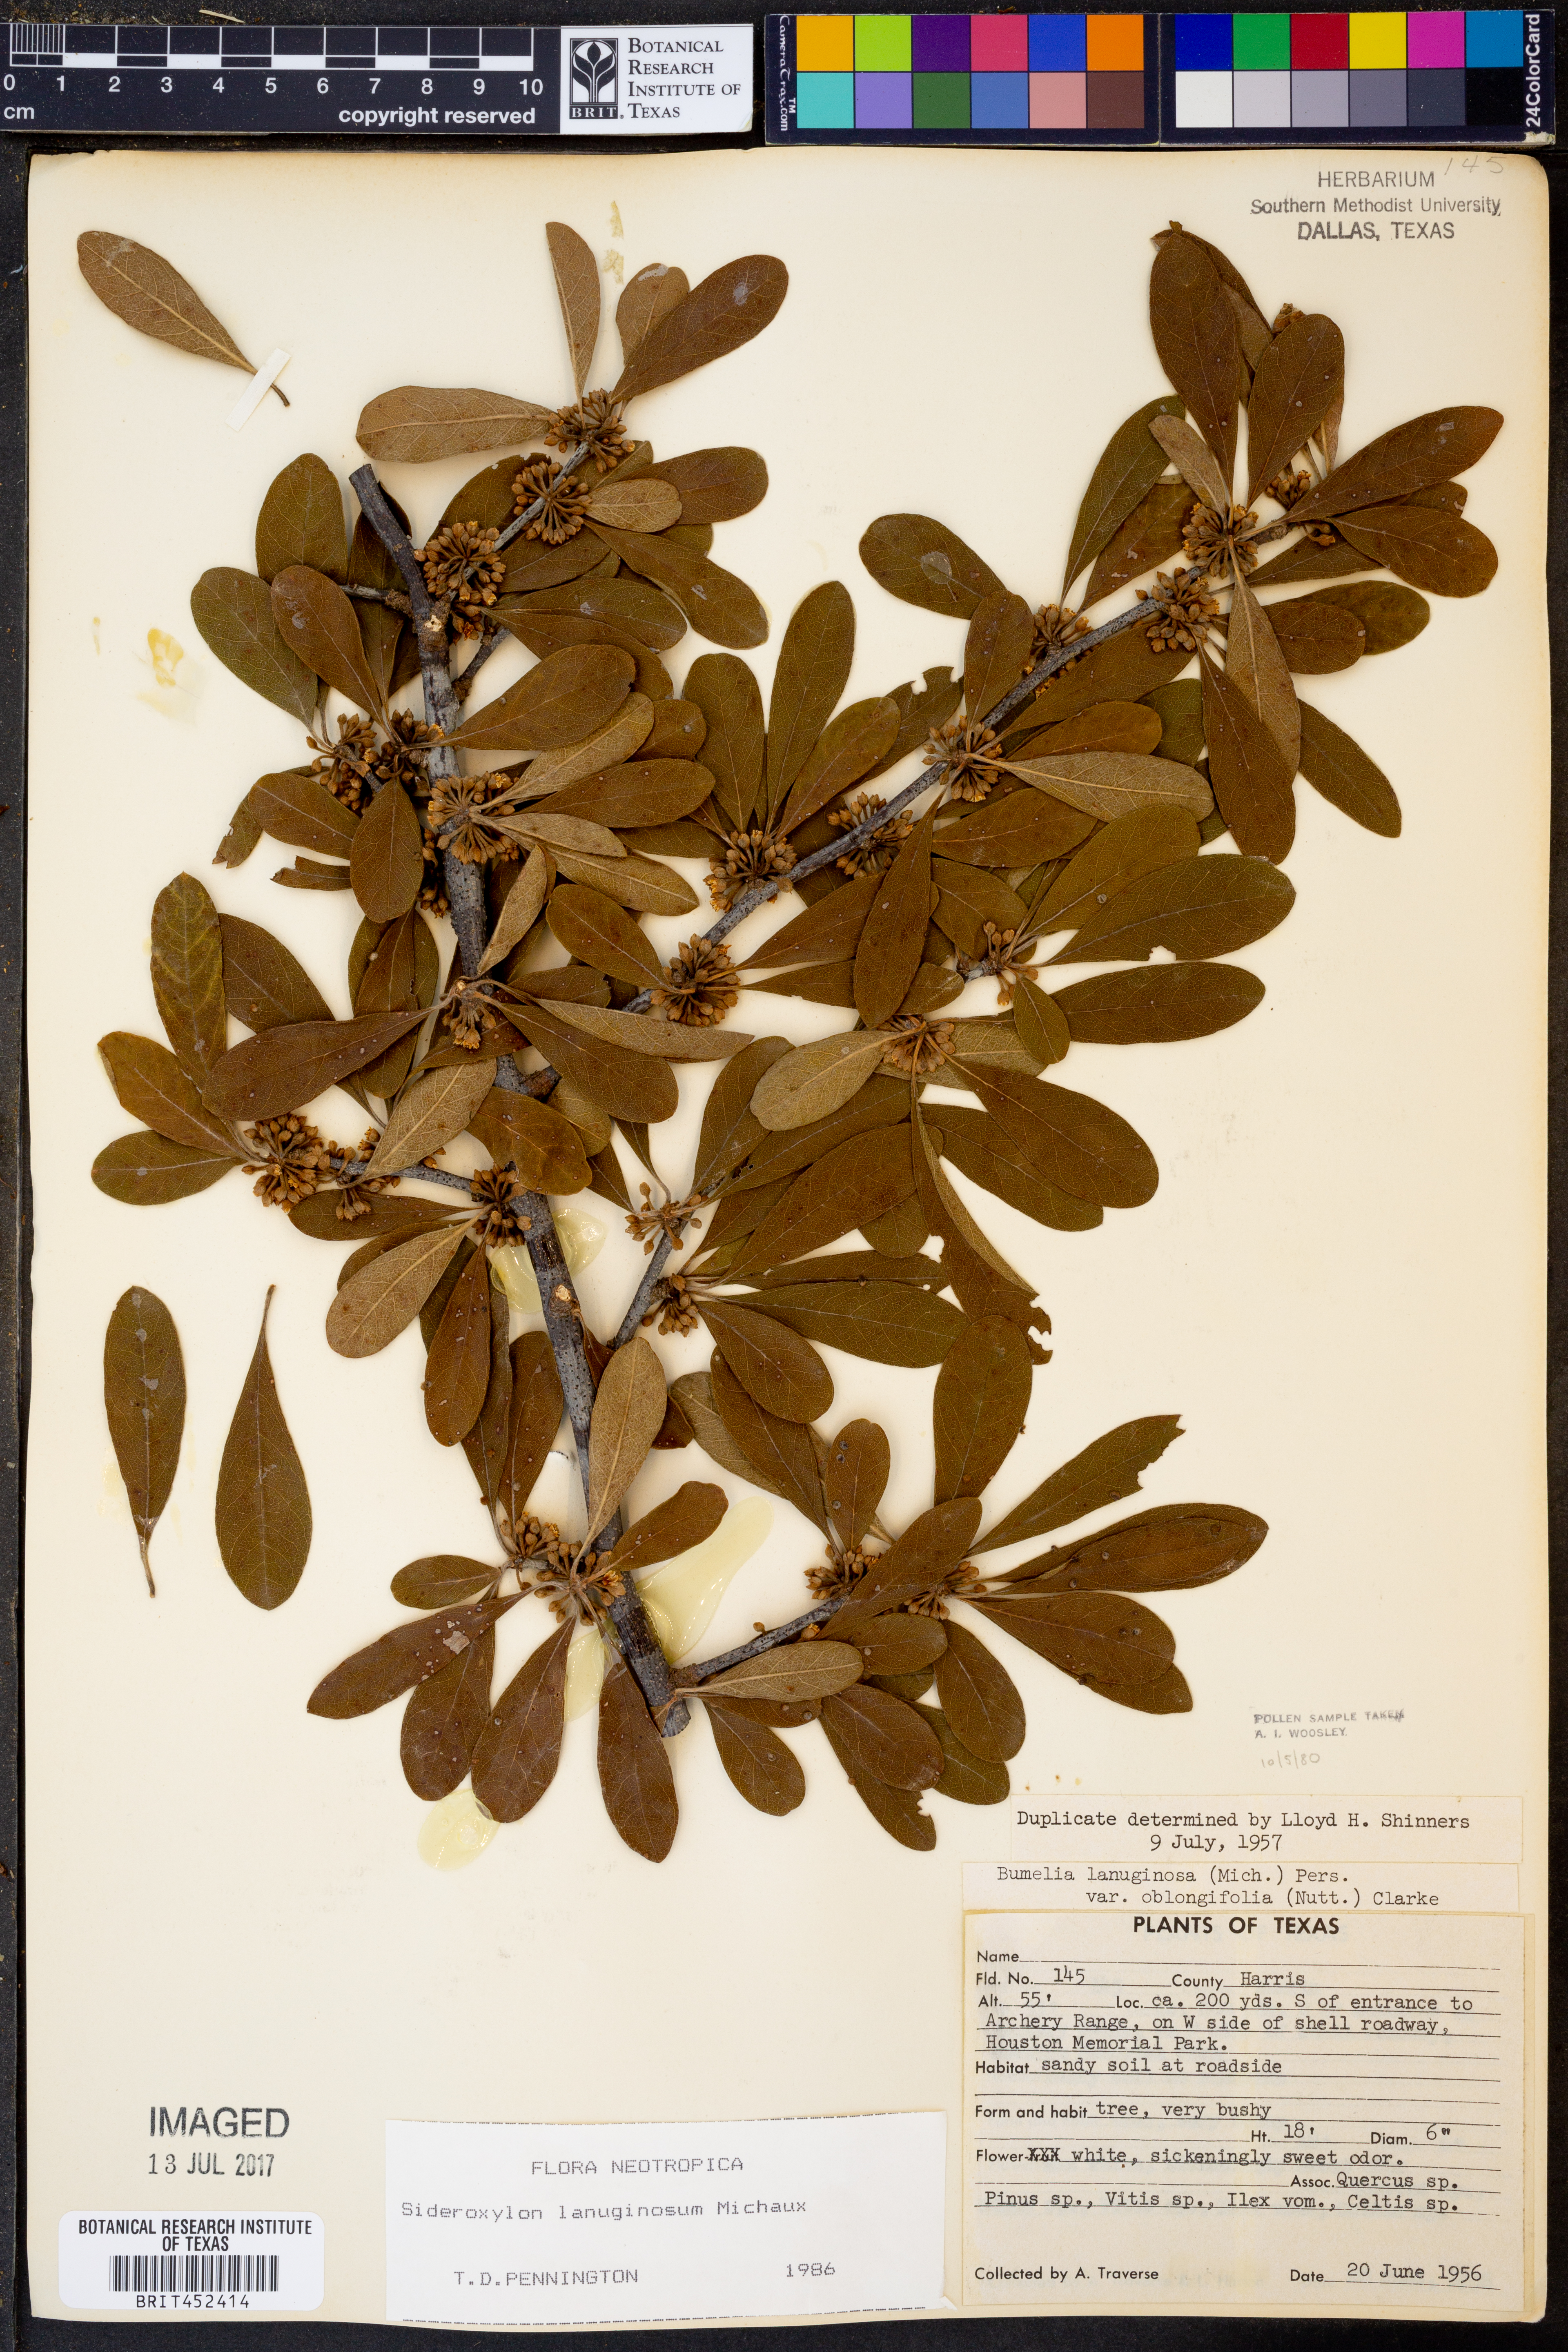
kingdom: Plantae
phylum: Tracheophyta
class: Magnoliopsida
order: Ericales
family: Sapotaceae
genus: Sideroxylon
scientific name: Sideroxylon lanuginosum
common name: Chittamwood
